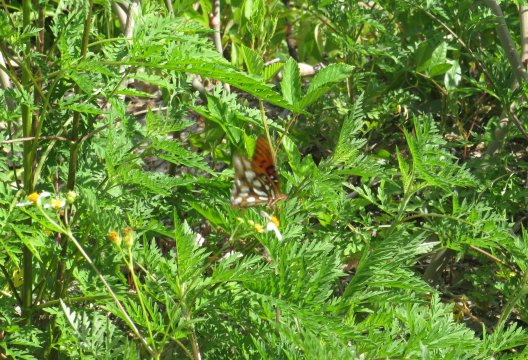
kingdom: Animalia
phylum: Arthropoda
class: Insecta
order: Lepidoptera
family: Nymphalidae
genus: Dione
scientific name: Dione vanillae
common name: Gulf Fritillary
